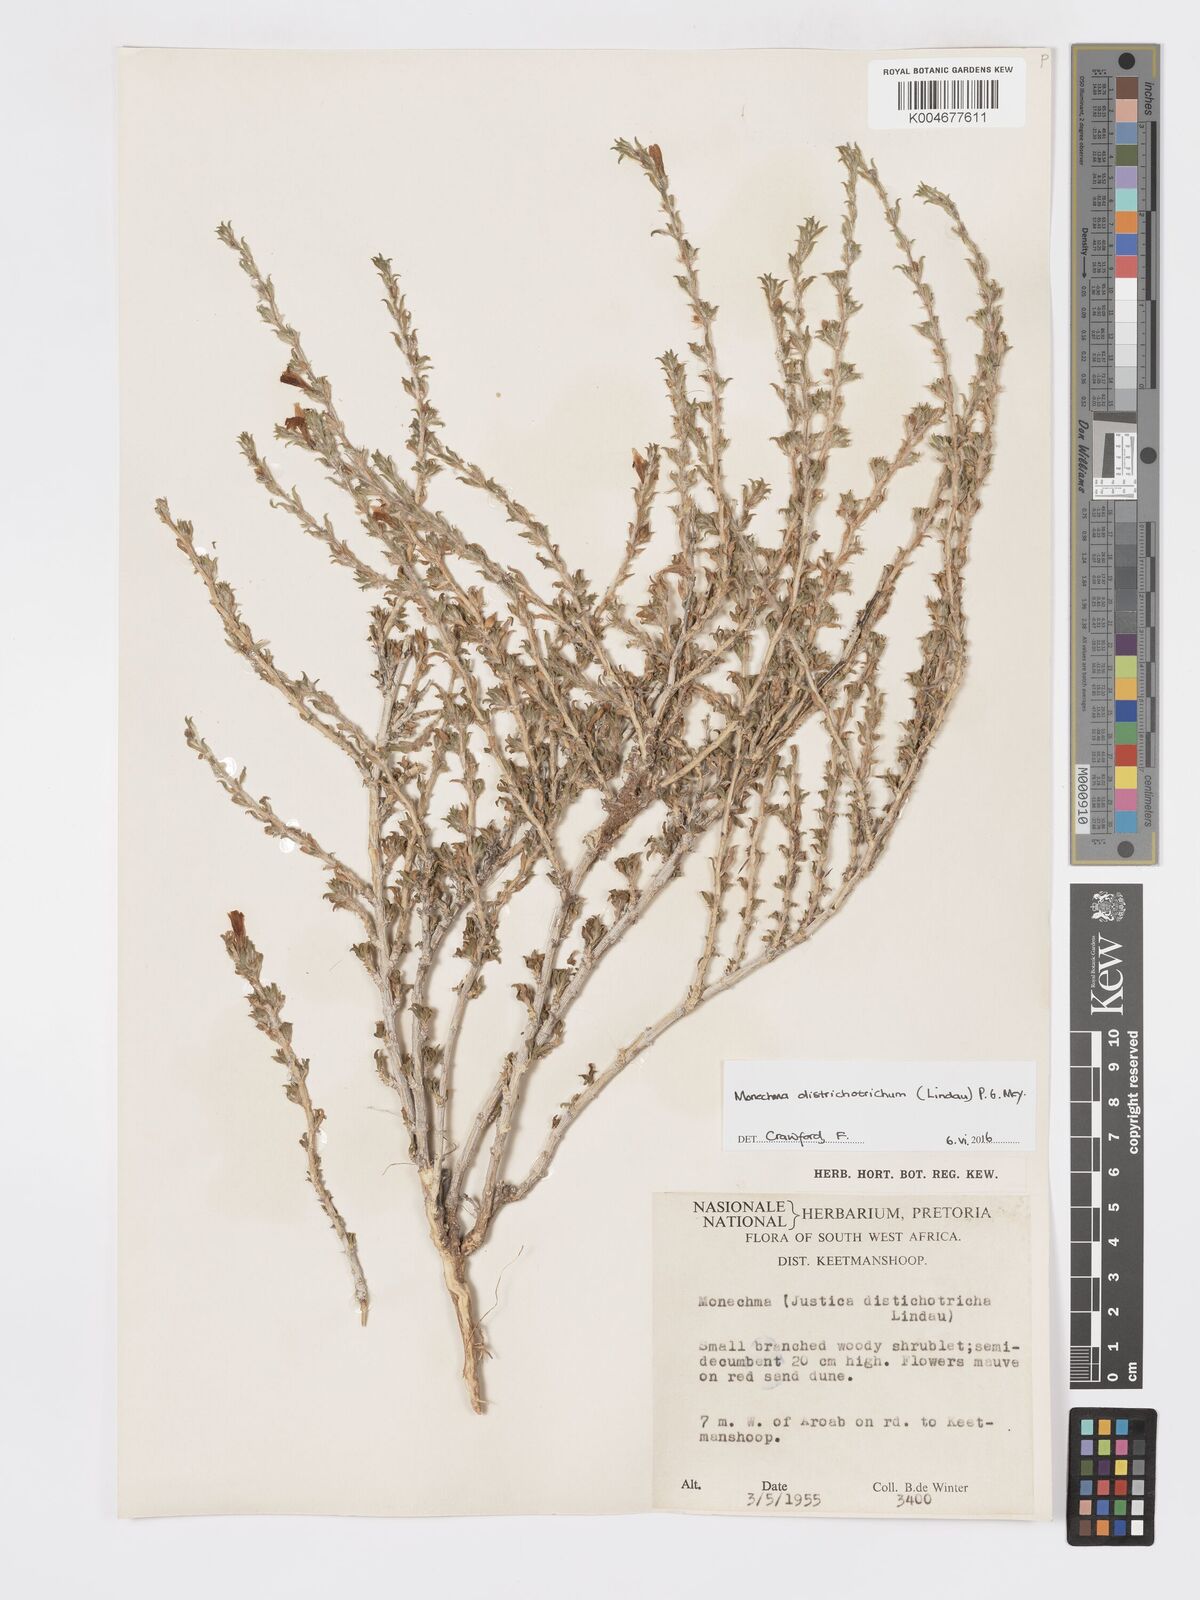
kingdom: Plantae
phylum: Tracheophyta
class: Magnoliopsida
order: Lamiales
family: Acanthaceae
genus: Pogonospermum
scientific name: Pogonospermum
